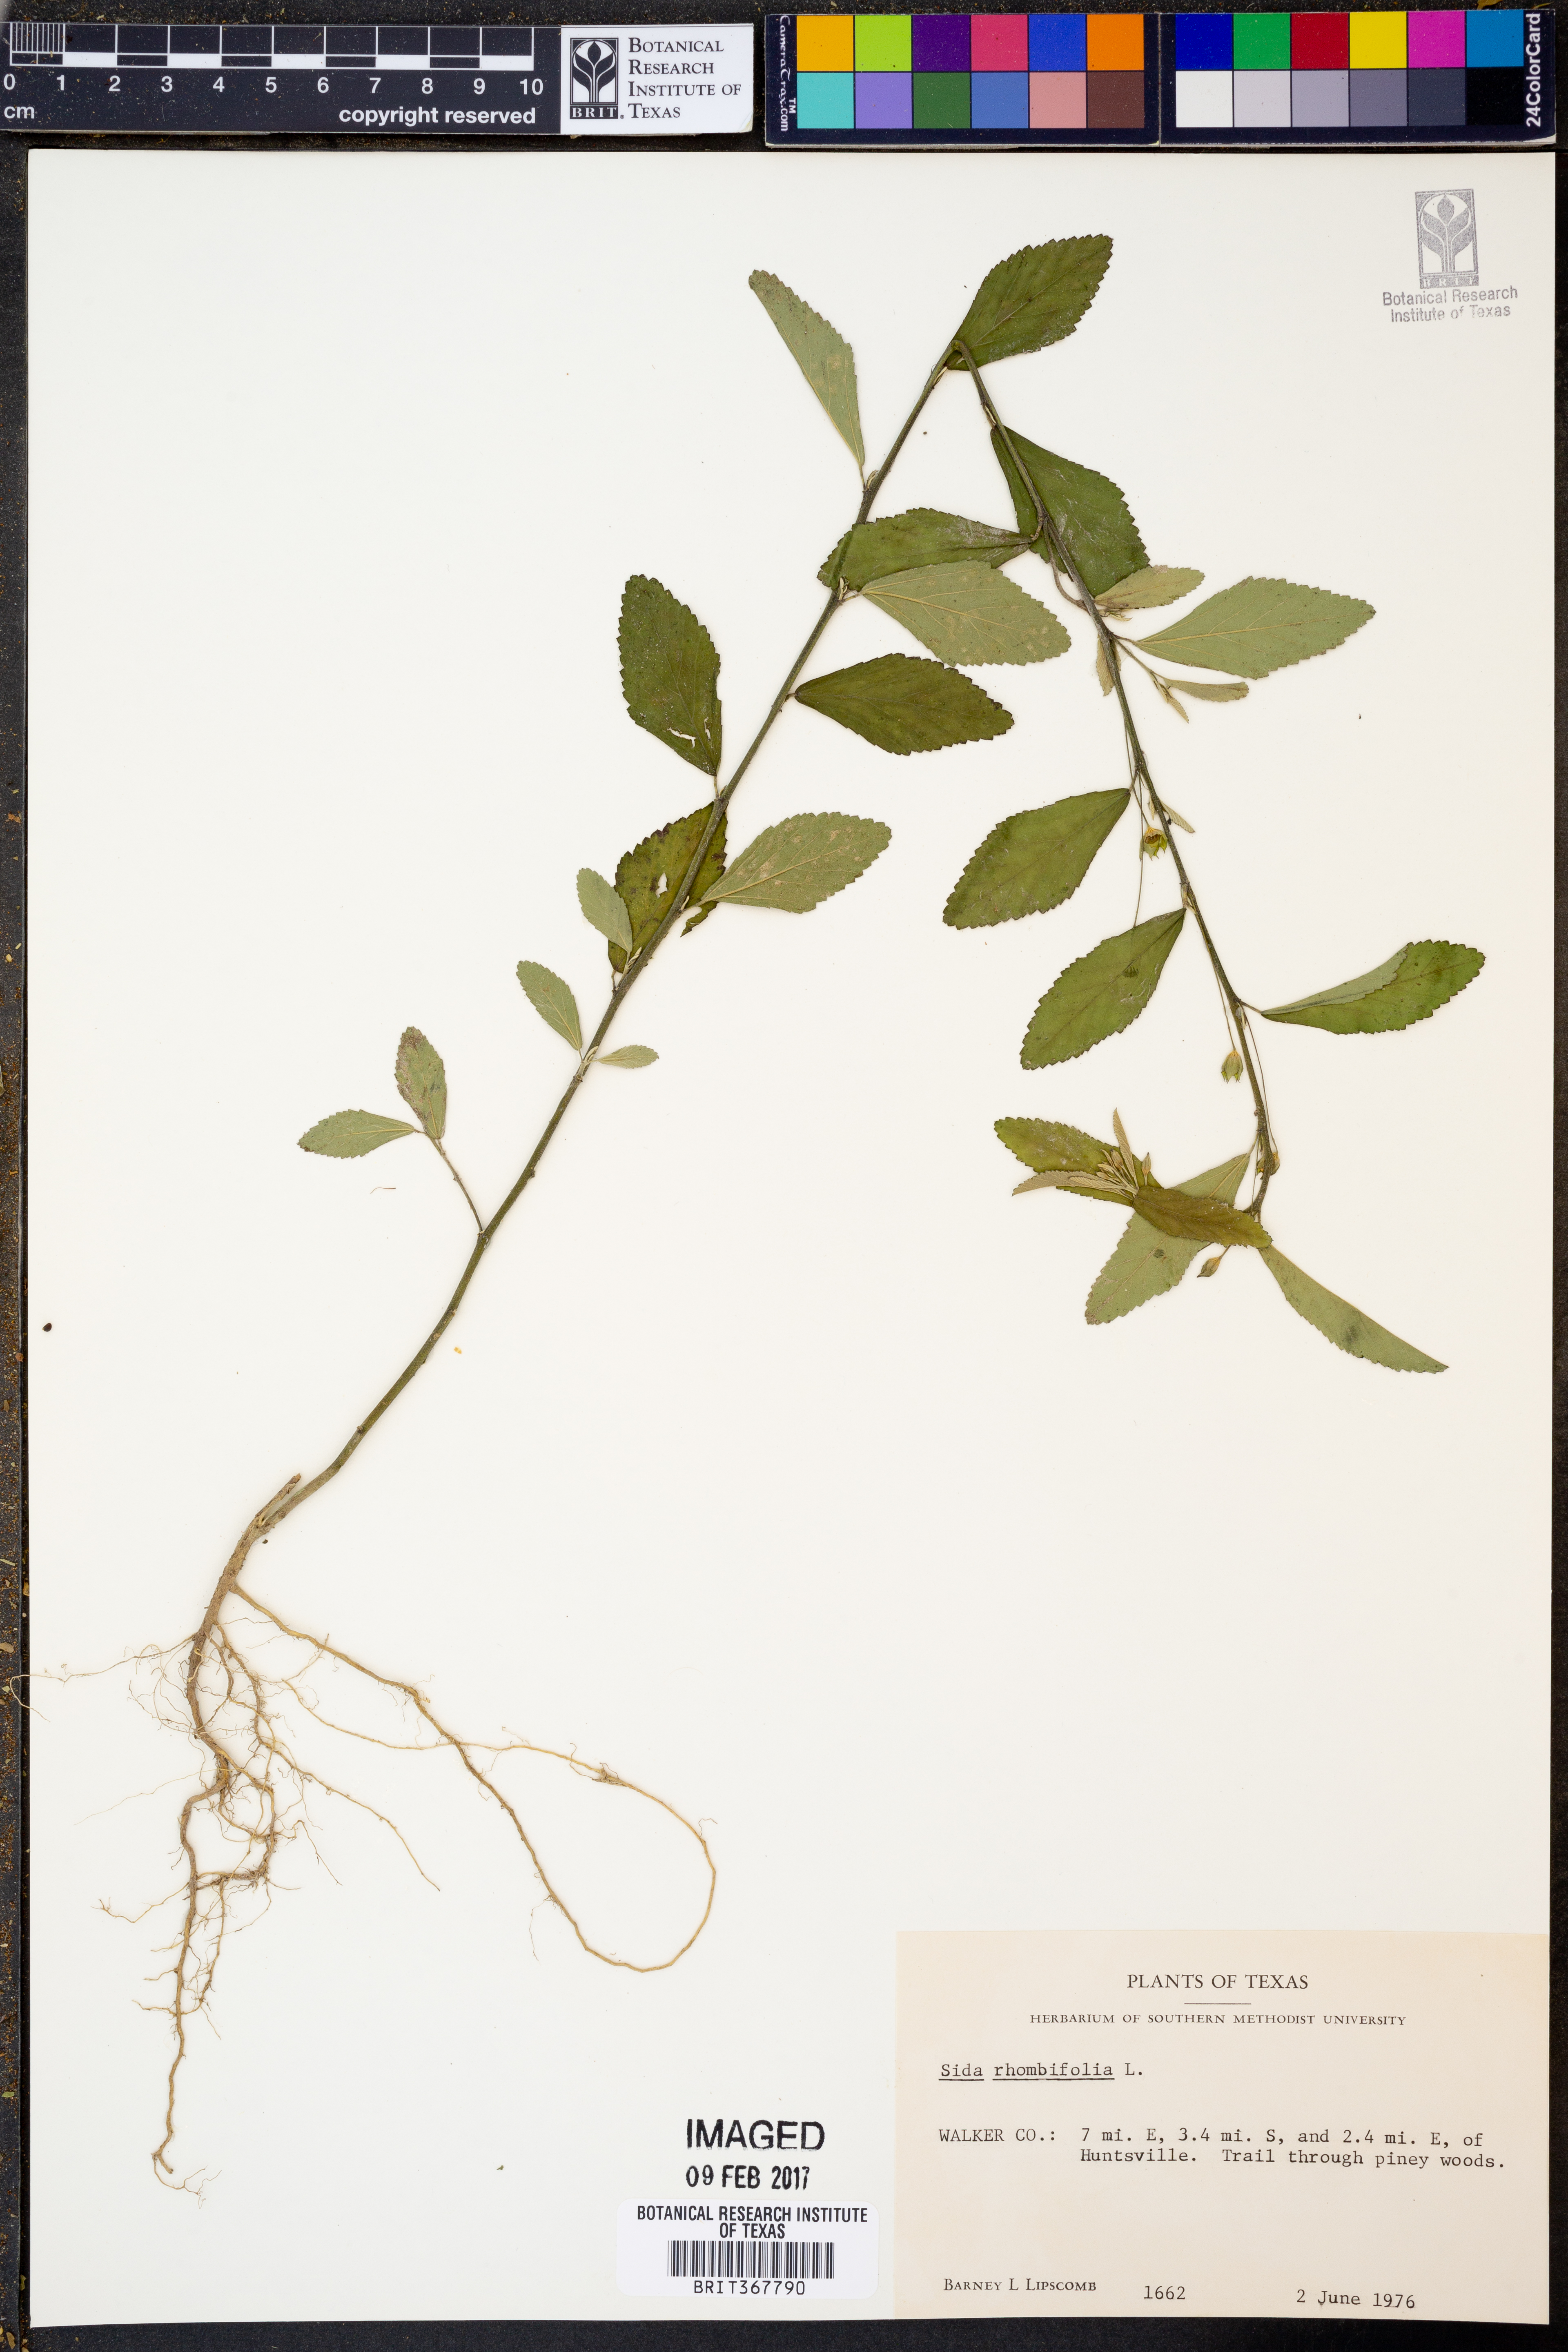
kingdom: Plantae
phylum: Tracheophyta
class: Magnoliopsida
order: Malvales
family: Malvaceae
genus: Sida
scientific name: Sida rhombifolia
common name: Queensland-hemp
